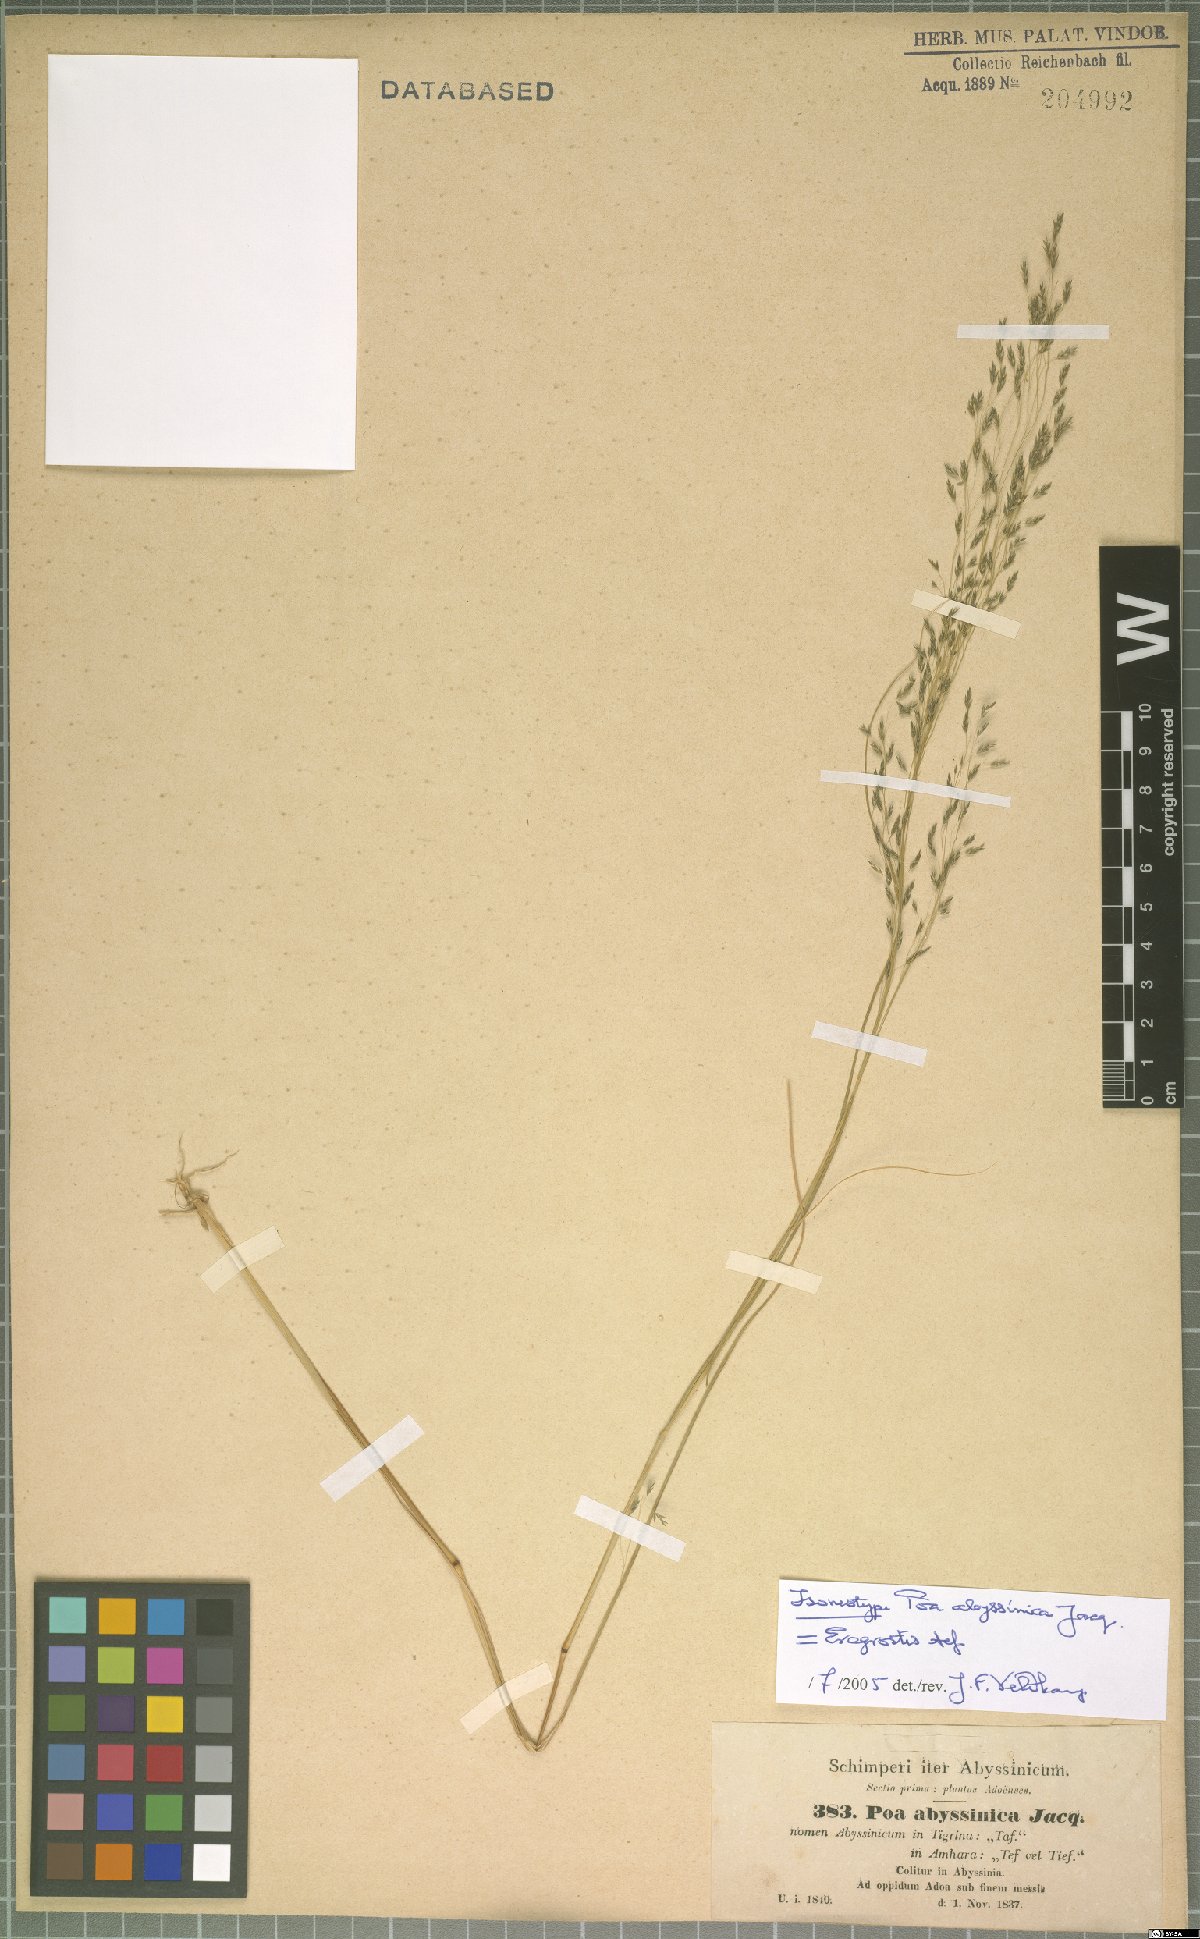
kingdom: Plantae
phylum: Tracheophyta
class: Liliopsida
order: Poales
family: Poaceae
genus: Eragrostis
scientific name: Eragrostis tef
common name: Teff
